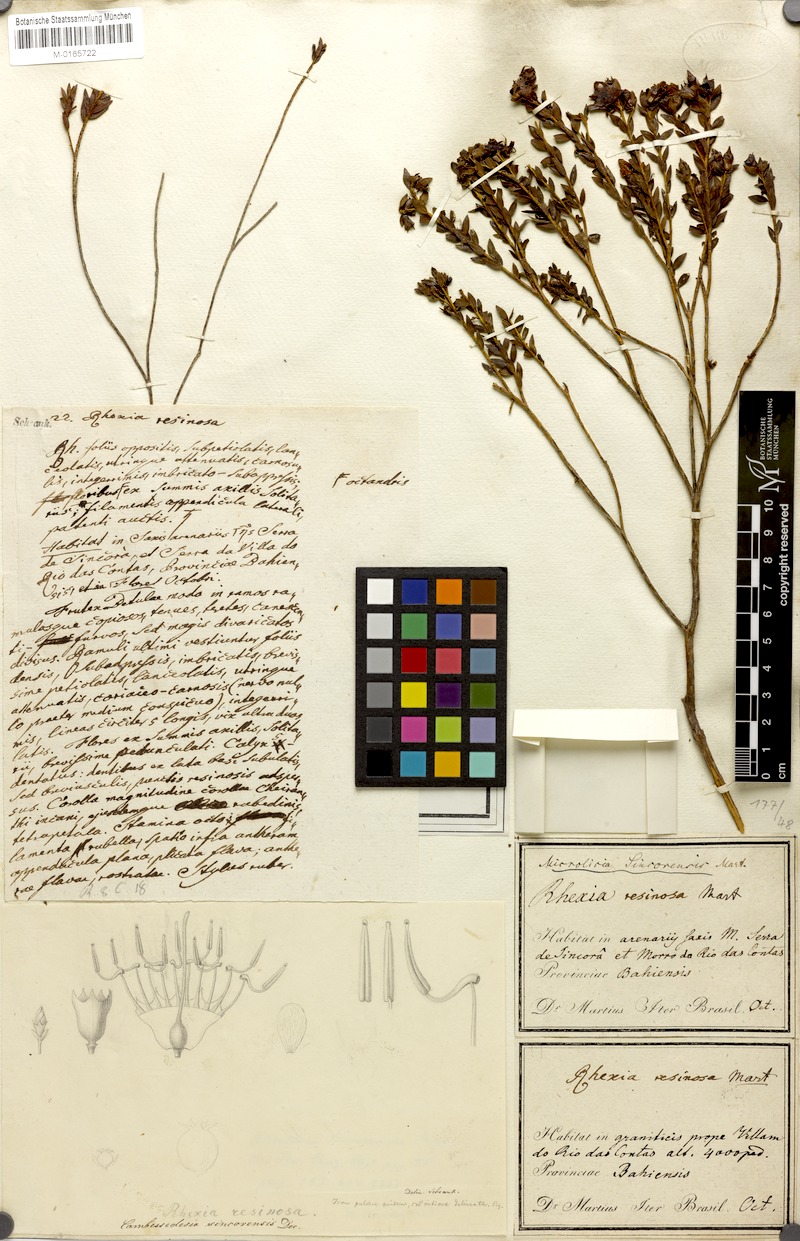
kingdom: Plantae
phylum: Tracheophyta
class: Magnoliopsida
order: Myrtales
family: Melastomataceae
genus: Microlicia
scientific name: Microlicia sincorensis
